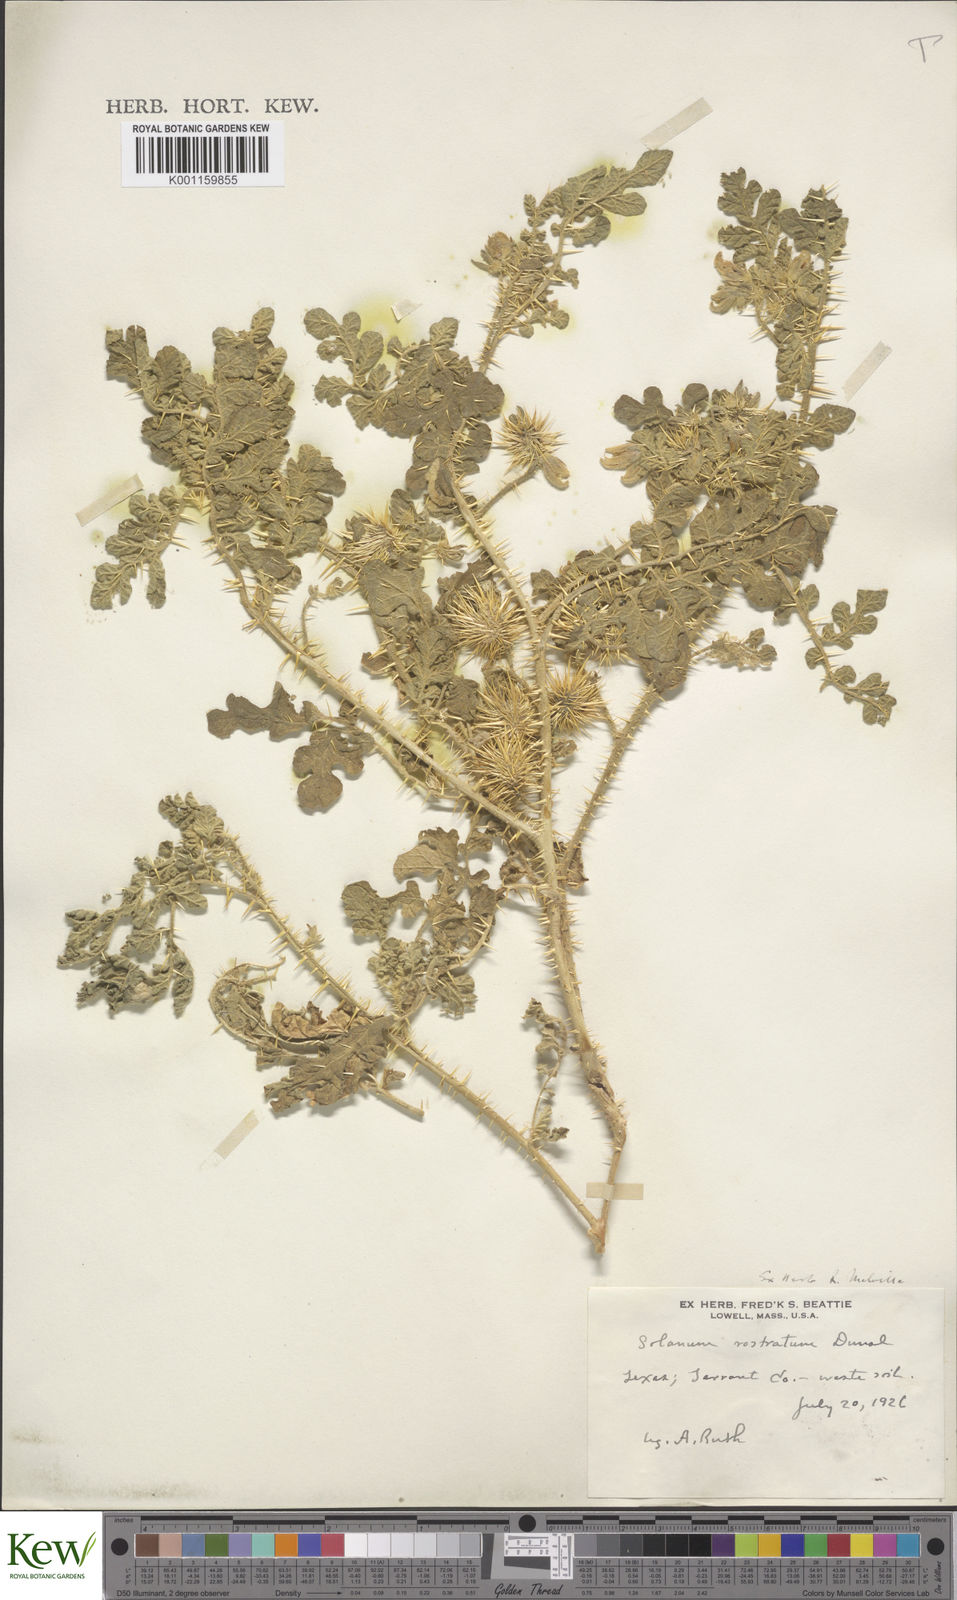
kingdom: Plantae
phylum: Tracheophyta
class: Magnoliopsida
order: Solanales
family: Solanaceae
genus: Solanum
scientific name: Solanum angustifolium
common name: Buffalobur nightshade
